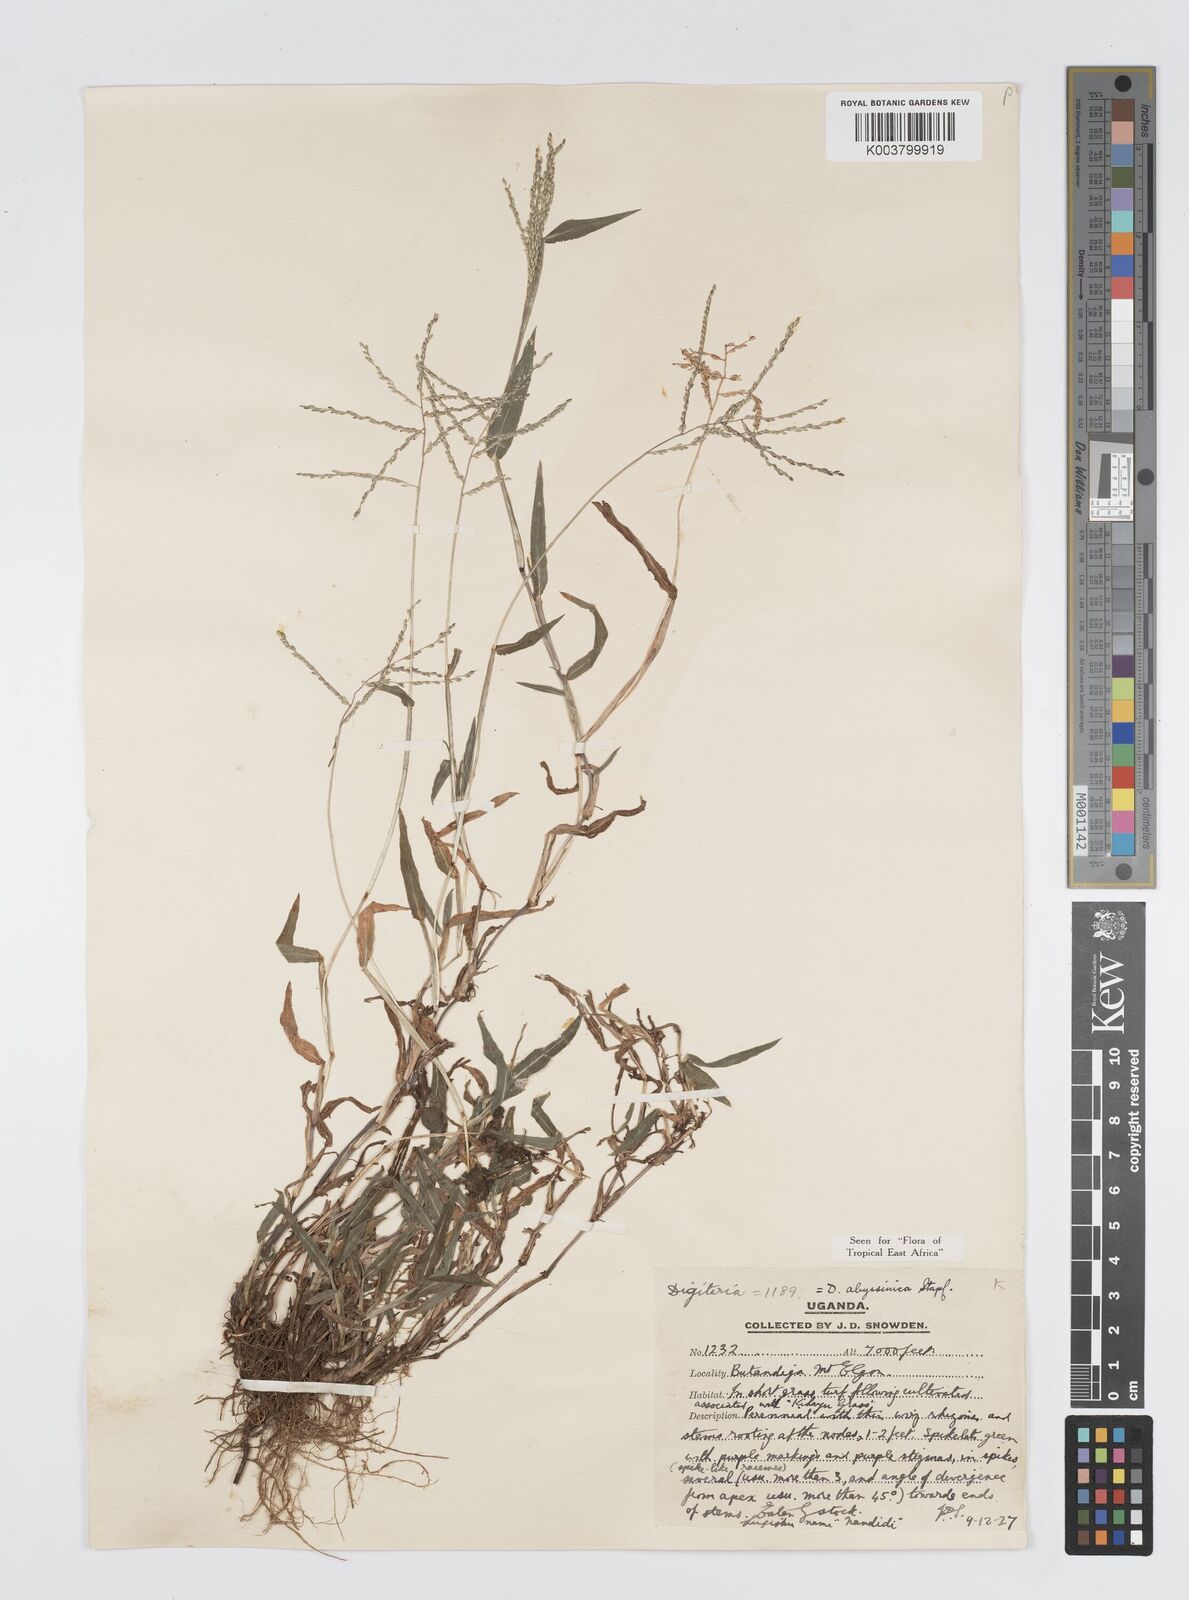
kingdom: Plantae
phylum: Tracheophyta
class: Liliopsida
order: Poales
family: Poaceae
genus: Digitaria
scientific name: Digitaria abyssinica
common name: African couchgrass
